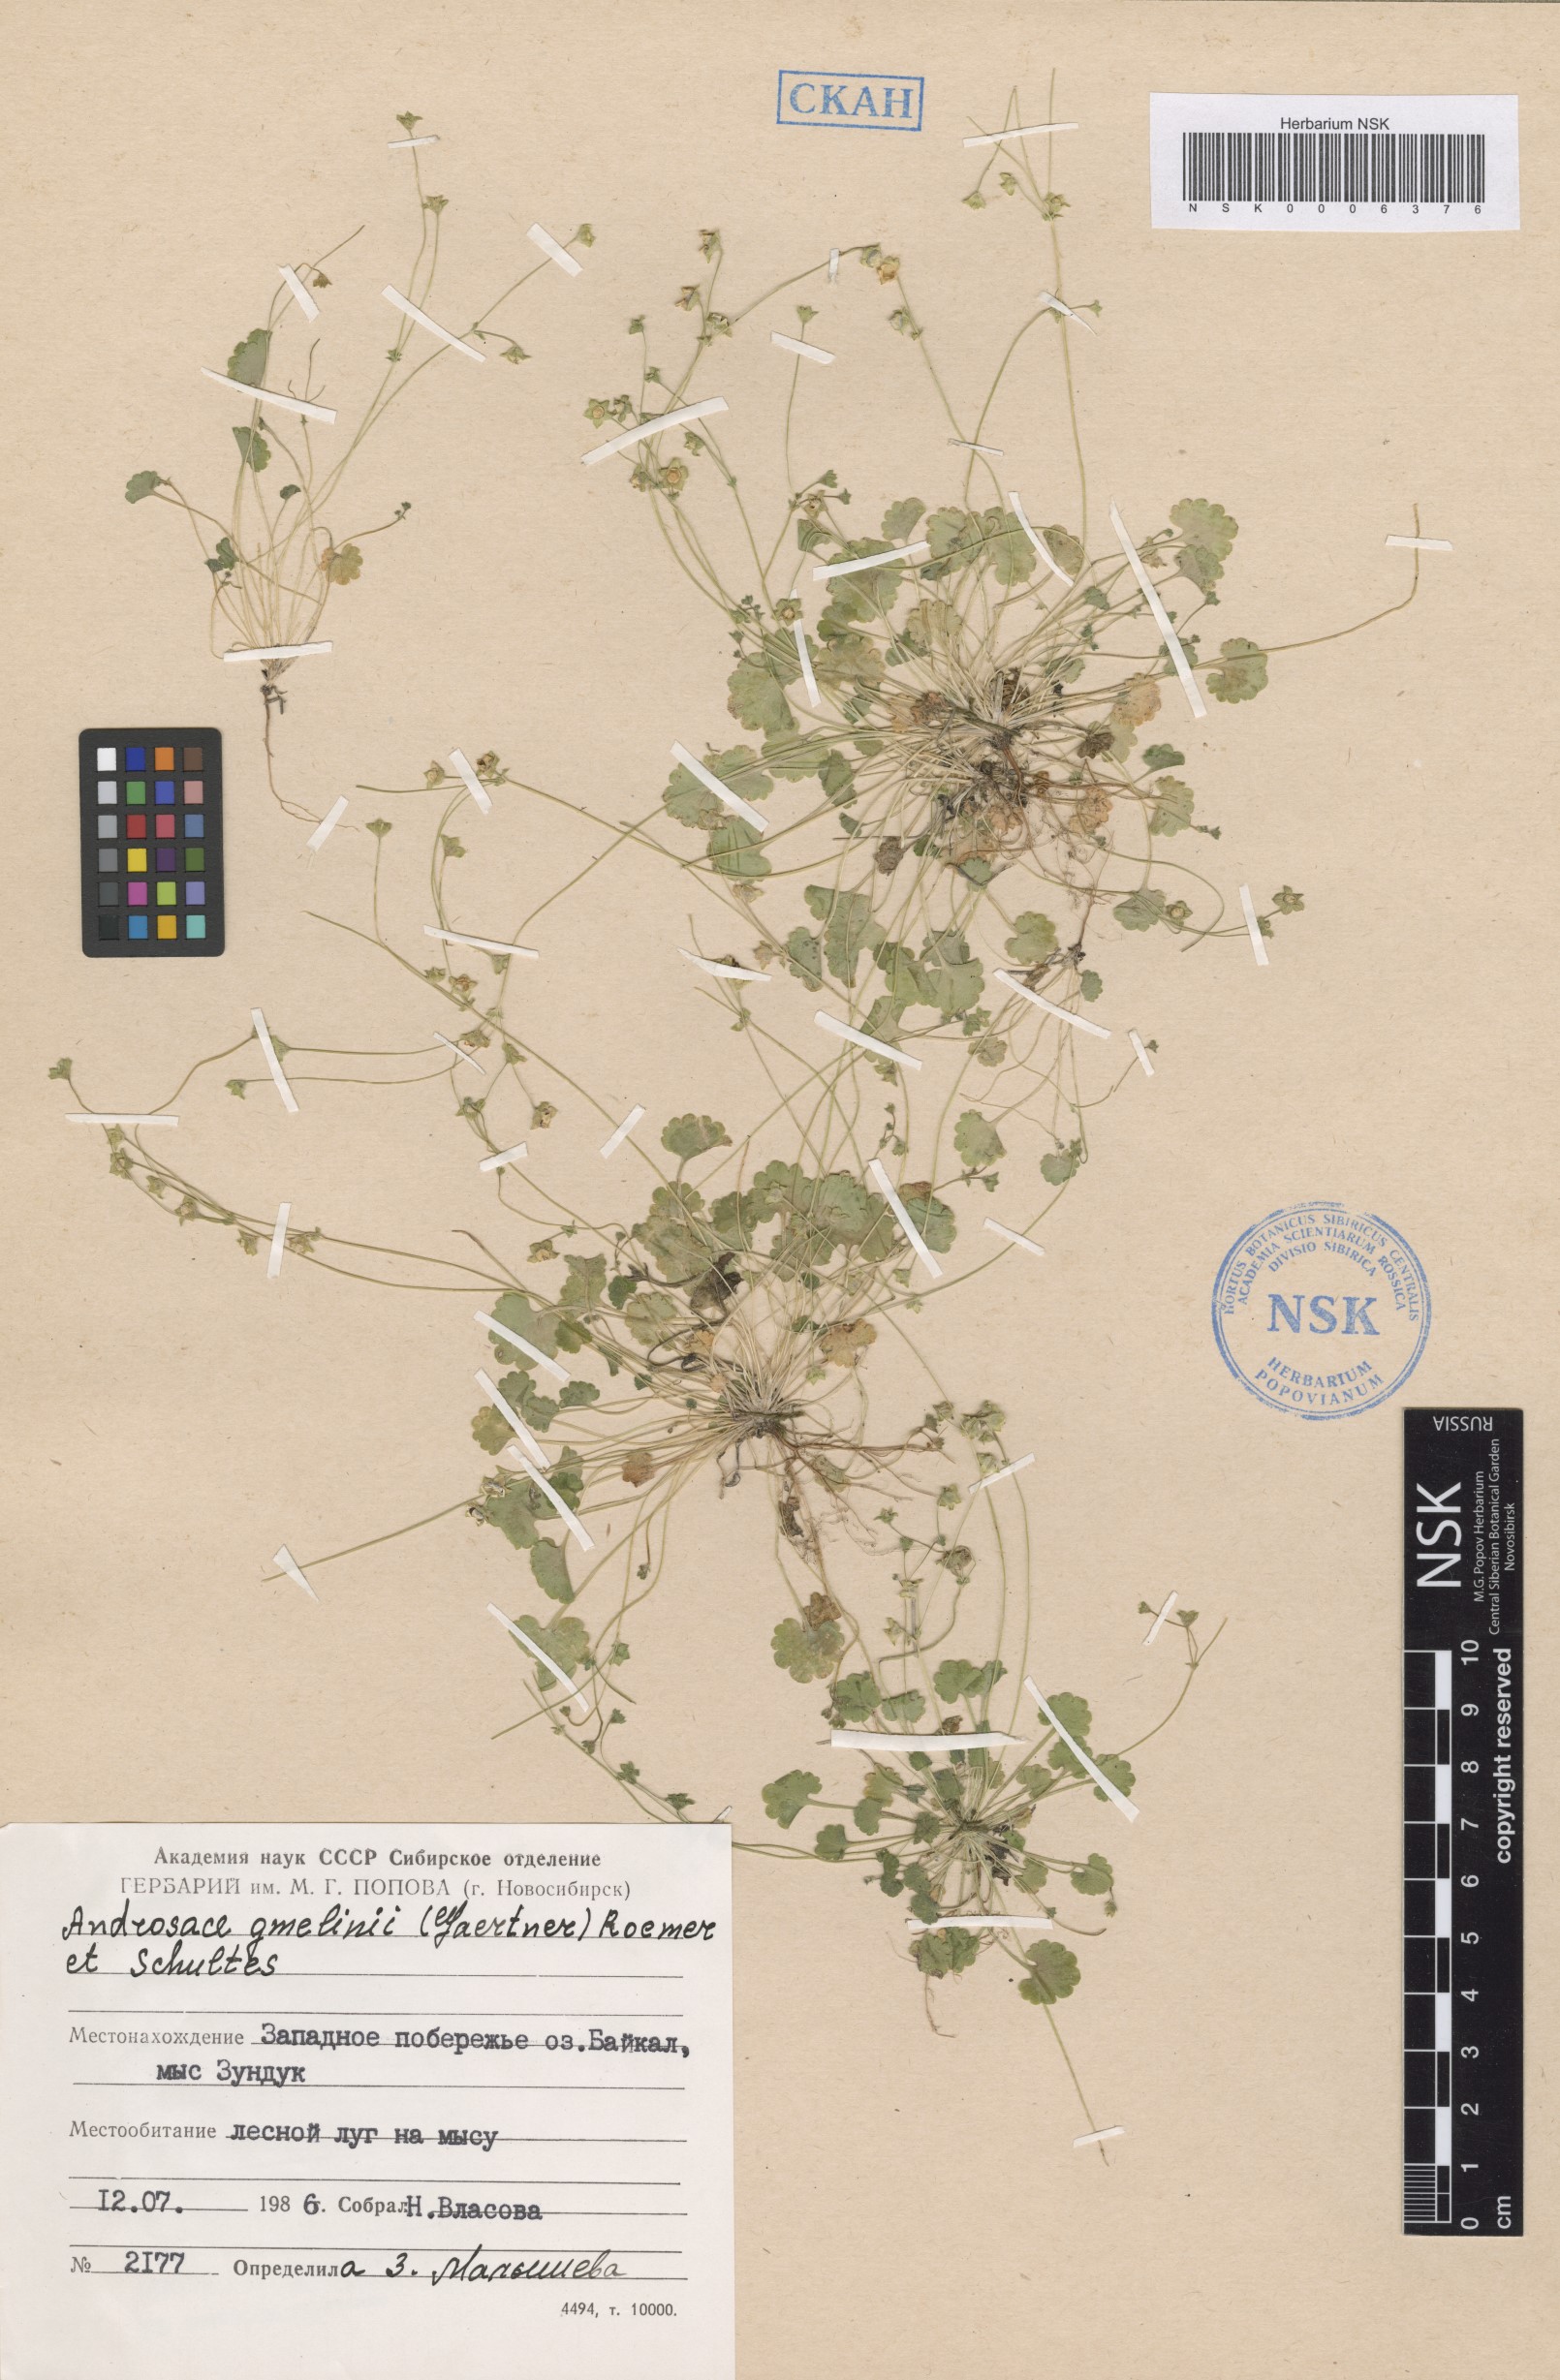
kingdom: Plantae
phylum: Tracheophyta
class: Magnoliopsida
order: Ericales
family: Primulaceae
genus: Androsace
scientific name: Androsace gmelinii
